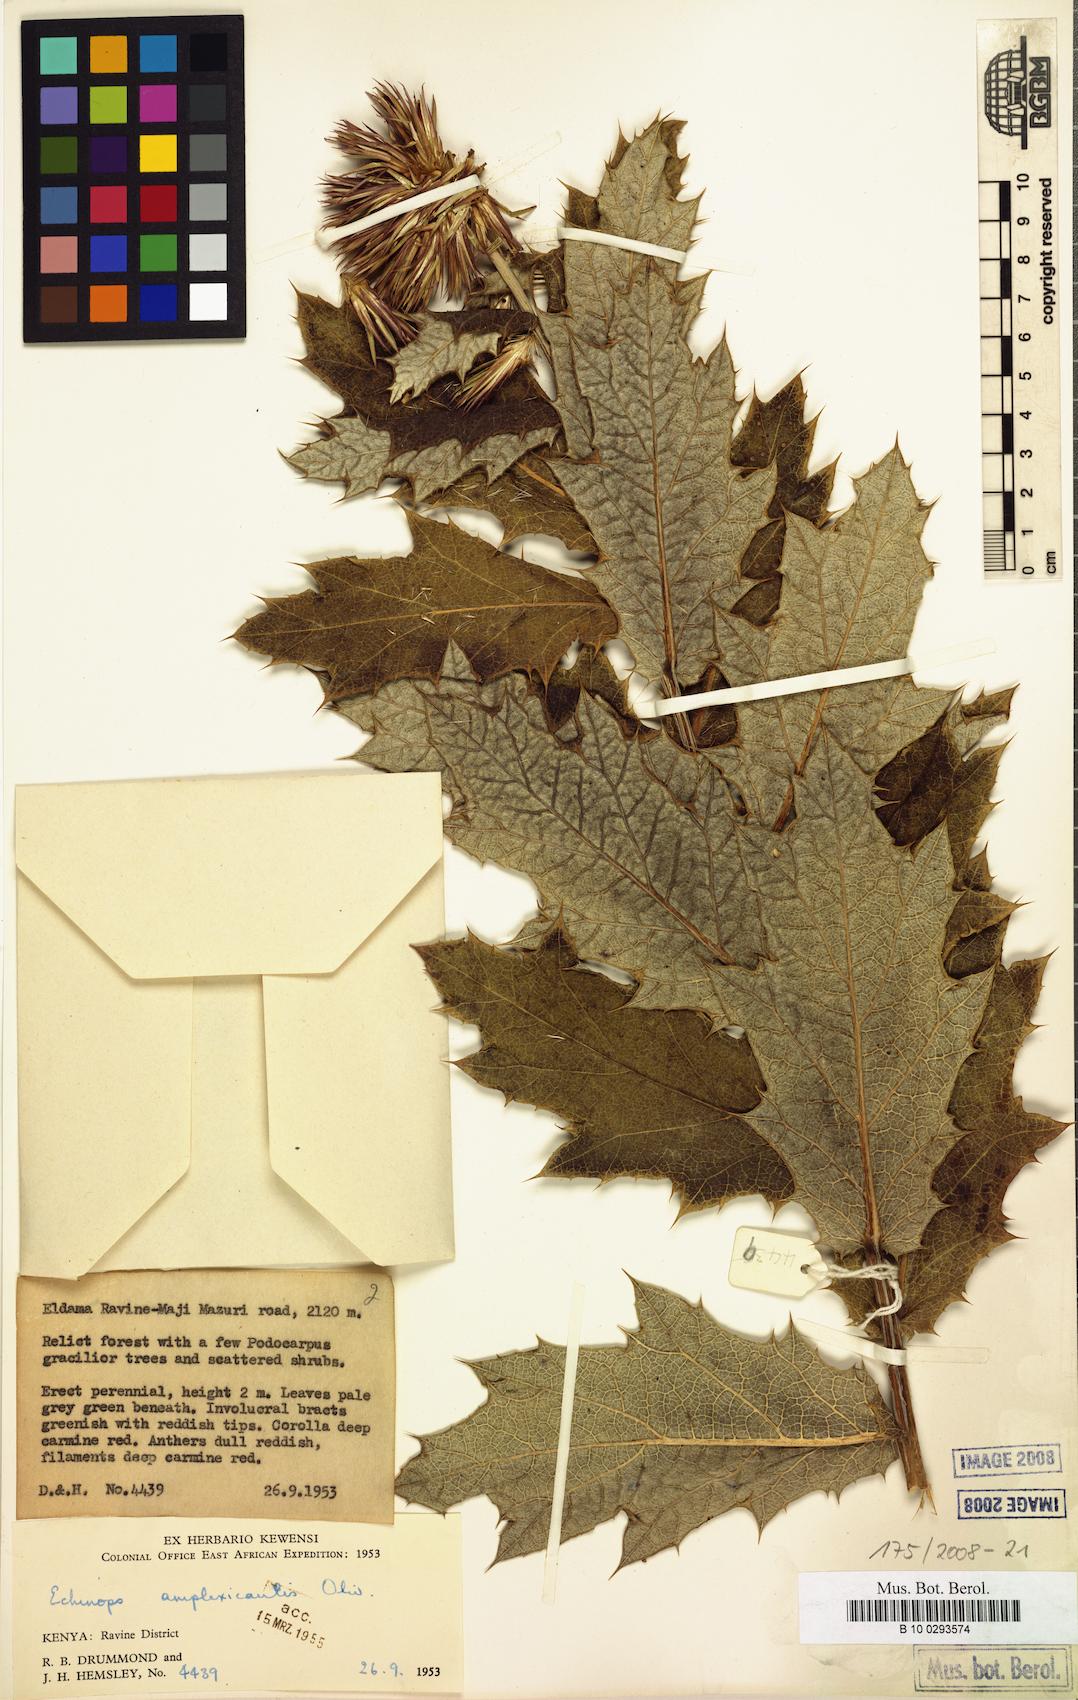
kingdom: Plantae
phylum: Tracheophyta
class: Magnoliopsida
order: Asterales
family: Asteraceae
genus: Echinops
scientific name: Echinops amplexicaulis
